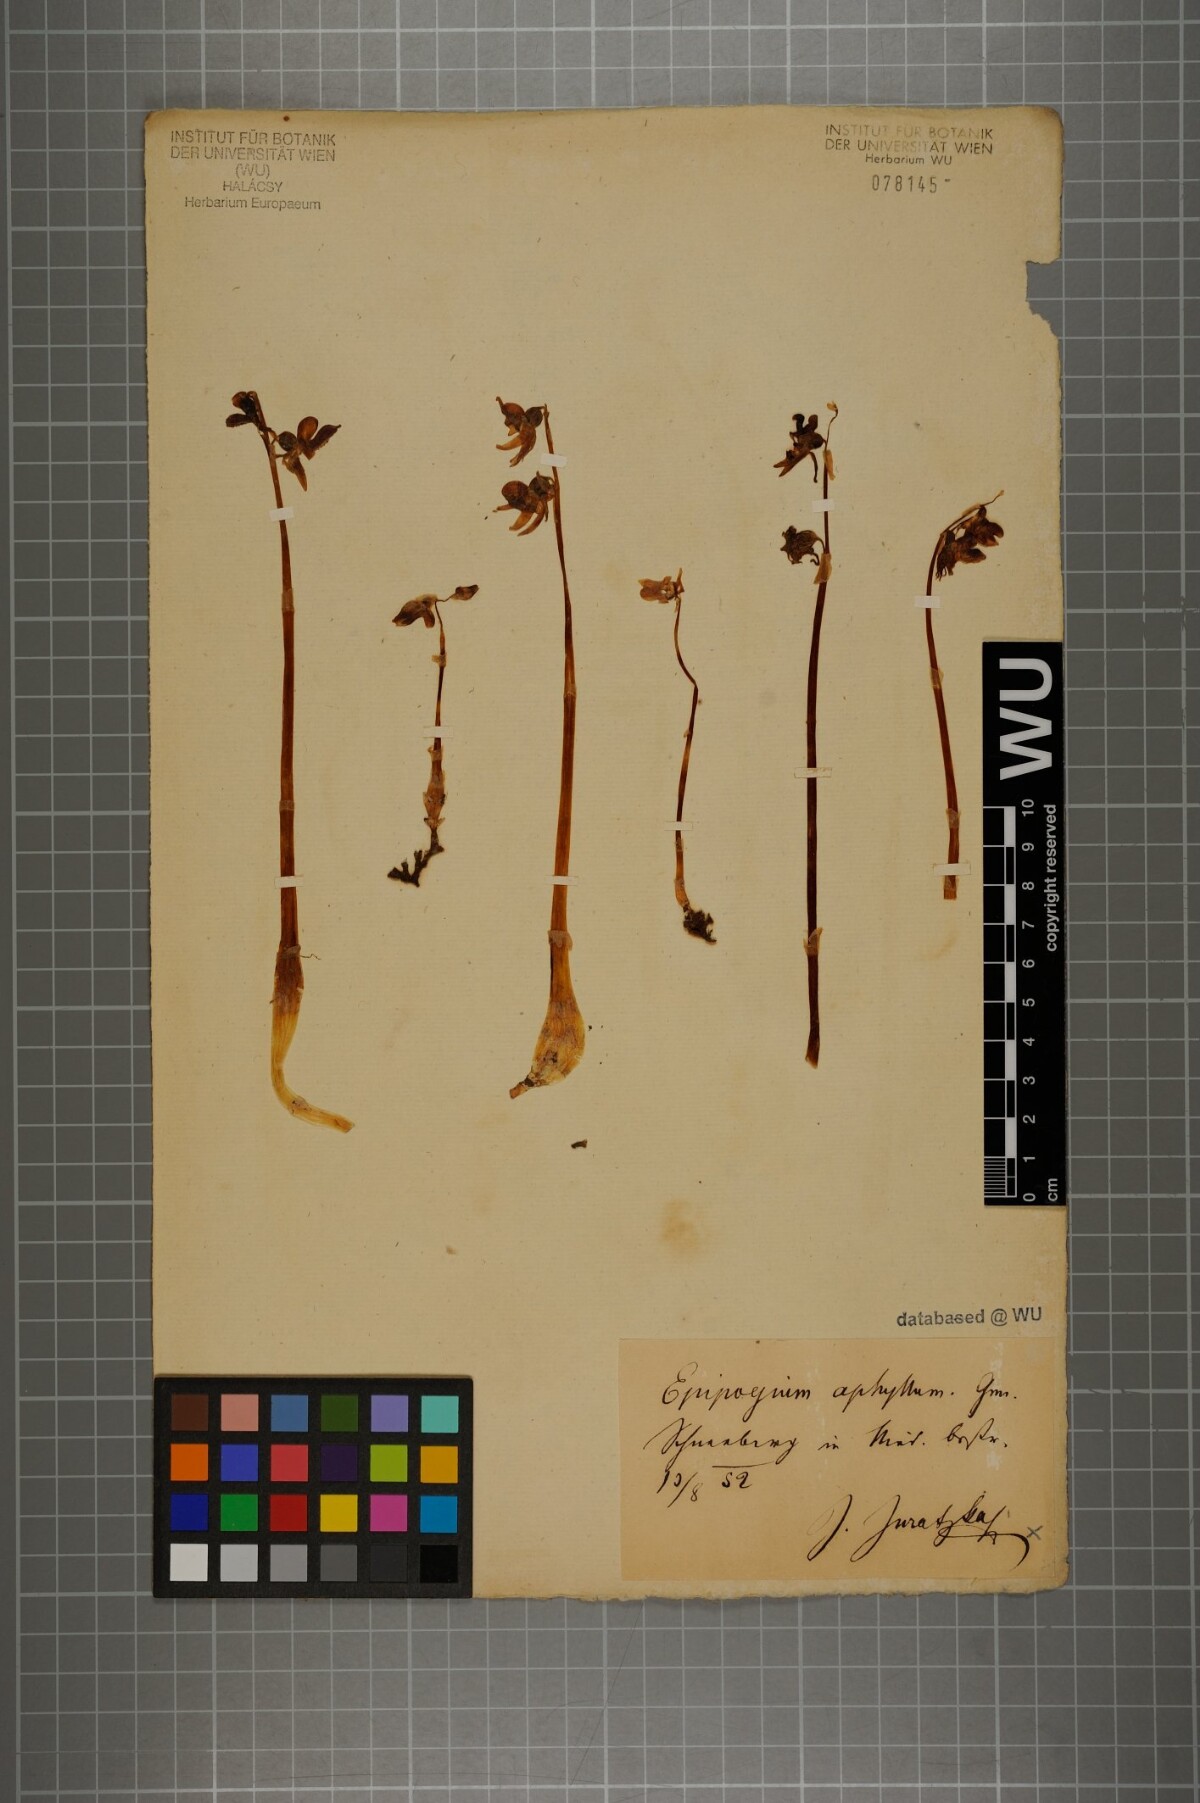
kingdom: Plantae
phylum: Tracheophyta
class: Liliopsida
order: Asparagales
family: Orchidaceae
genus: Epipogium
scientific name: Epipogium aphyllum
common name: Ghost orchid
